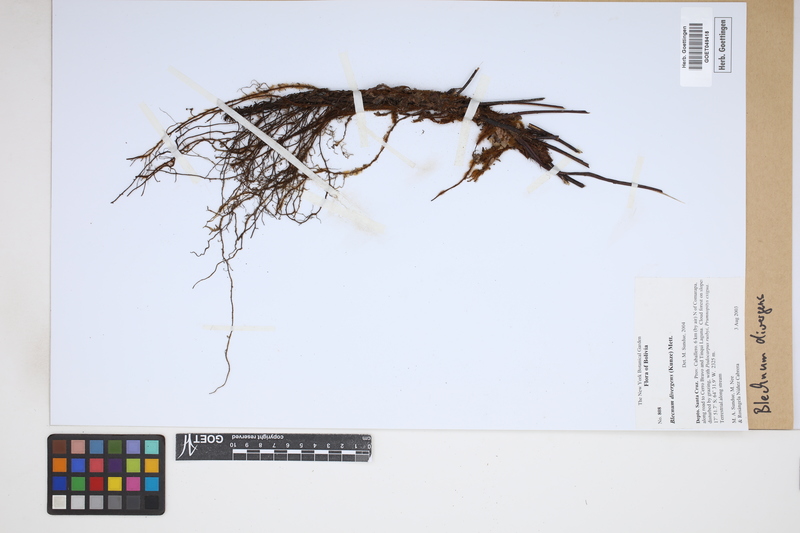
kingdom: Plantae
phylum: Tracheophyta
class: Polypodiopsida
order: Polypodiales
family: Blechnaceae
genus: Austroblechnum
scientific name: Austroblechnum divergens
